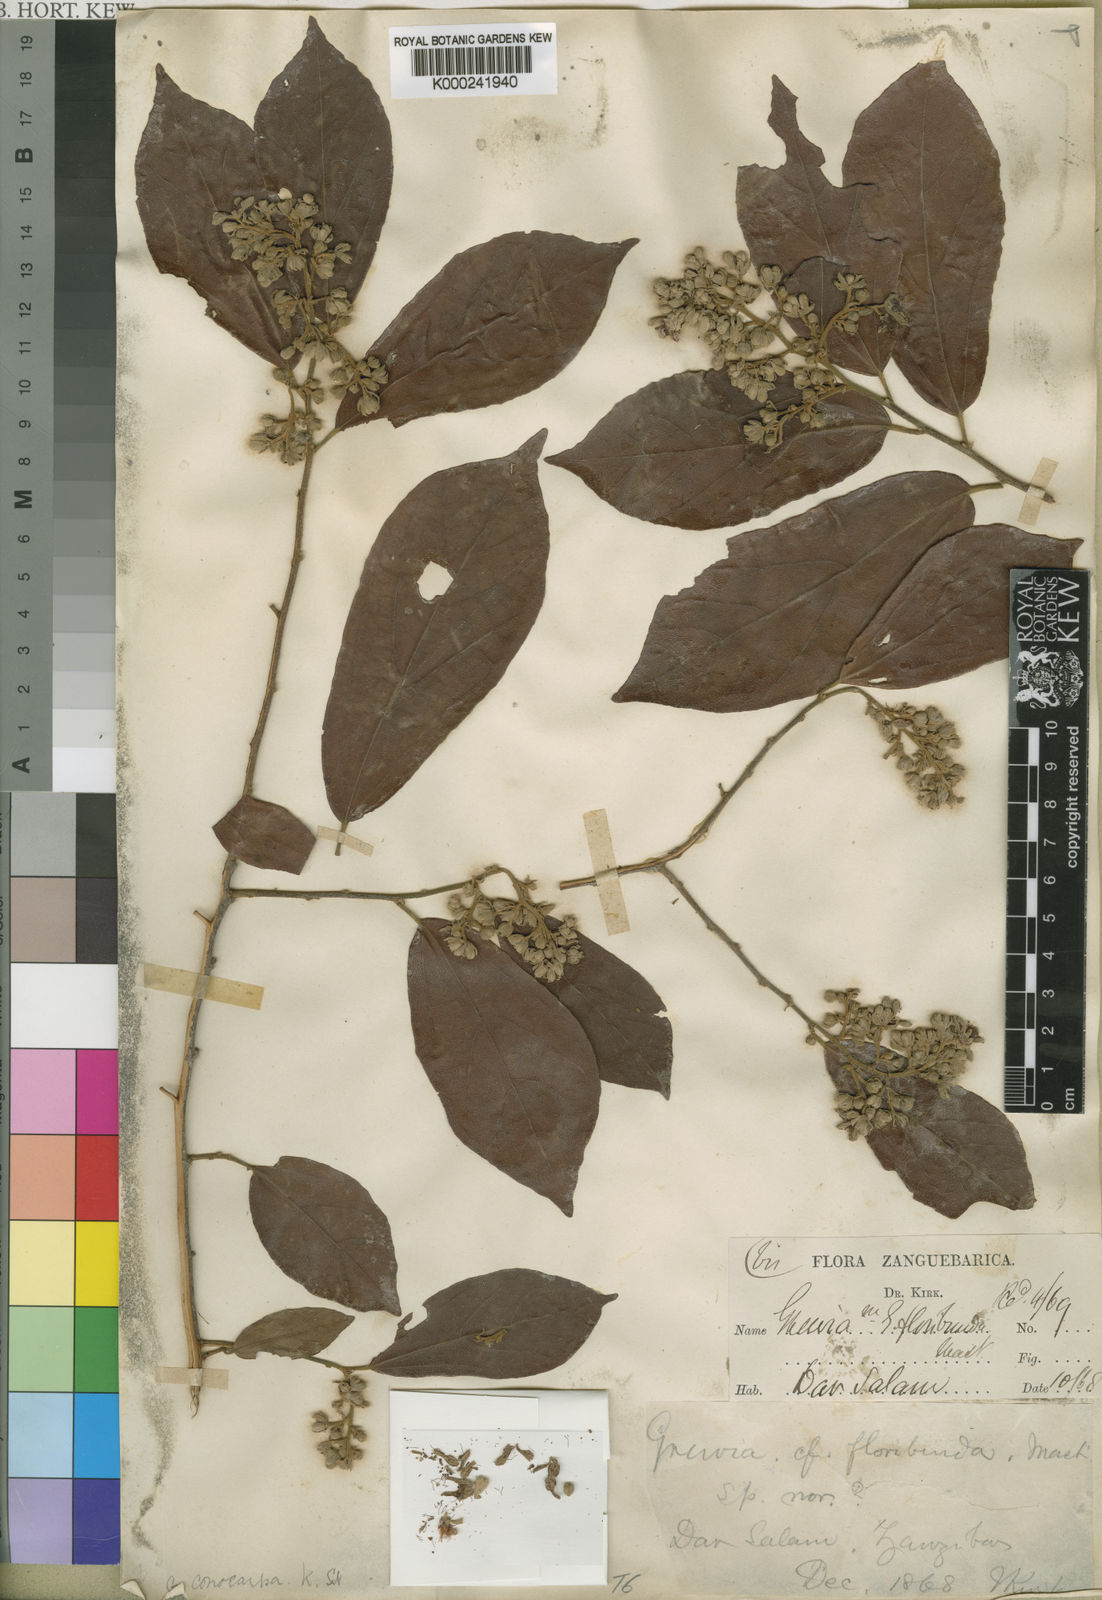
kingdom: Plantae
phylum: Tracheophyta
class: Magnoliopsida
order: Malvales
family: Malvaceae
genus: Microcos
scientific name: Microcos conocarpa
